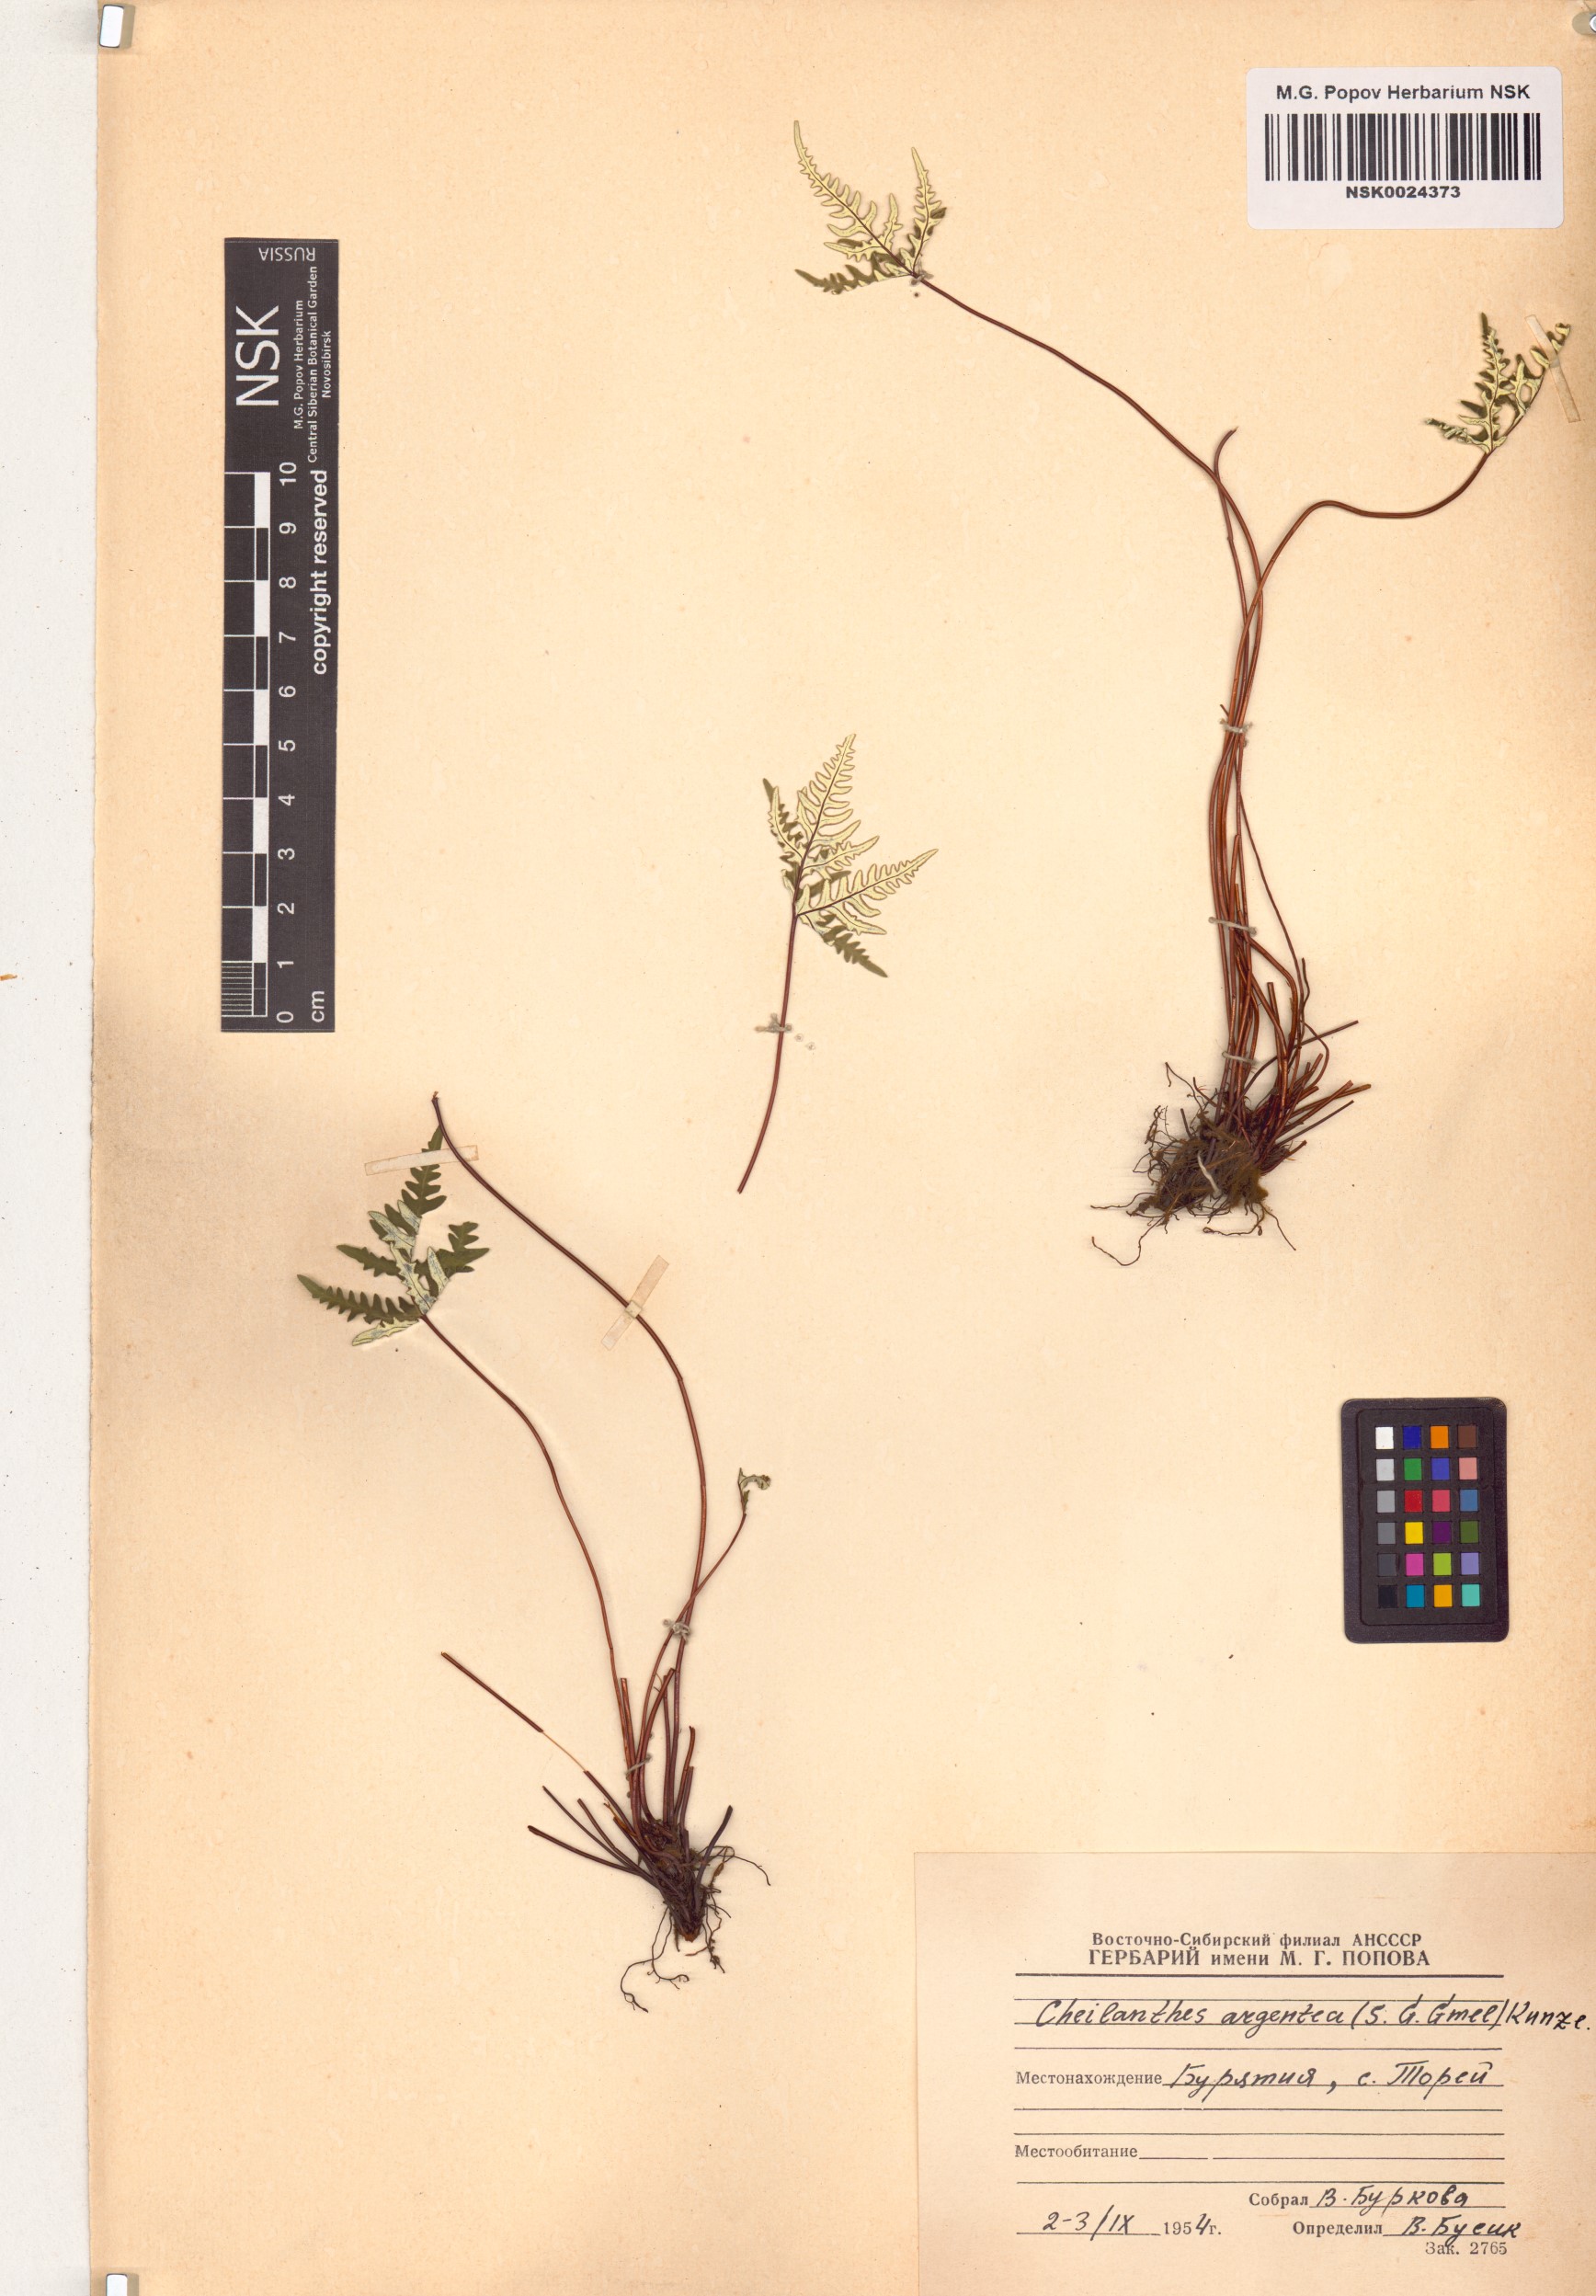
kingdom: Plantae
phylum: Tracheophyta
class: Polypodiopsida
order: Polypodiales
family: Pteridaceae
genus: Aleuritopteris
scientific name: Aleuritopteris argentea
